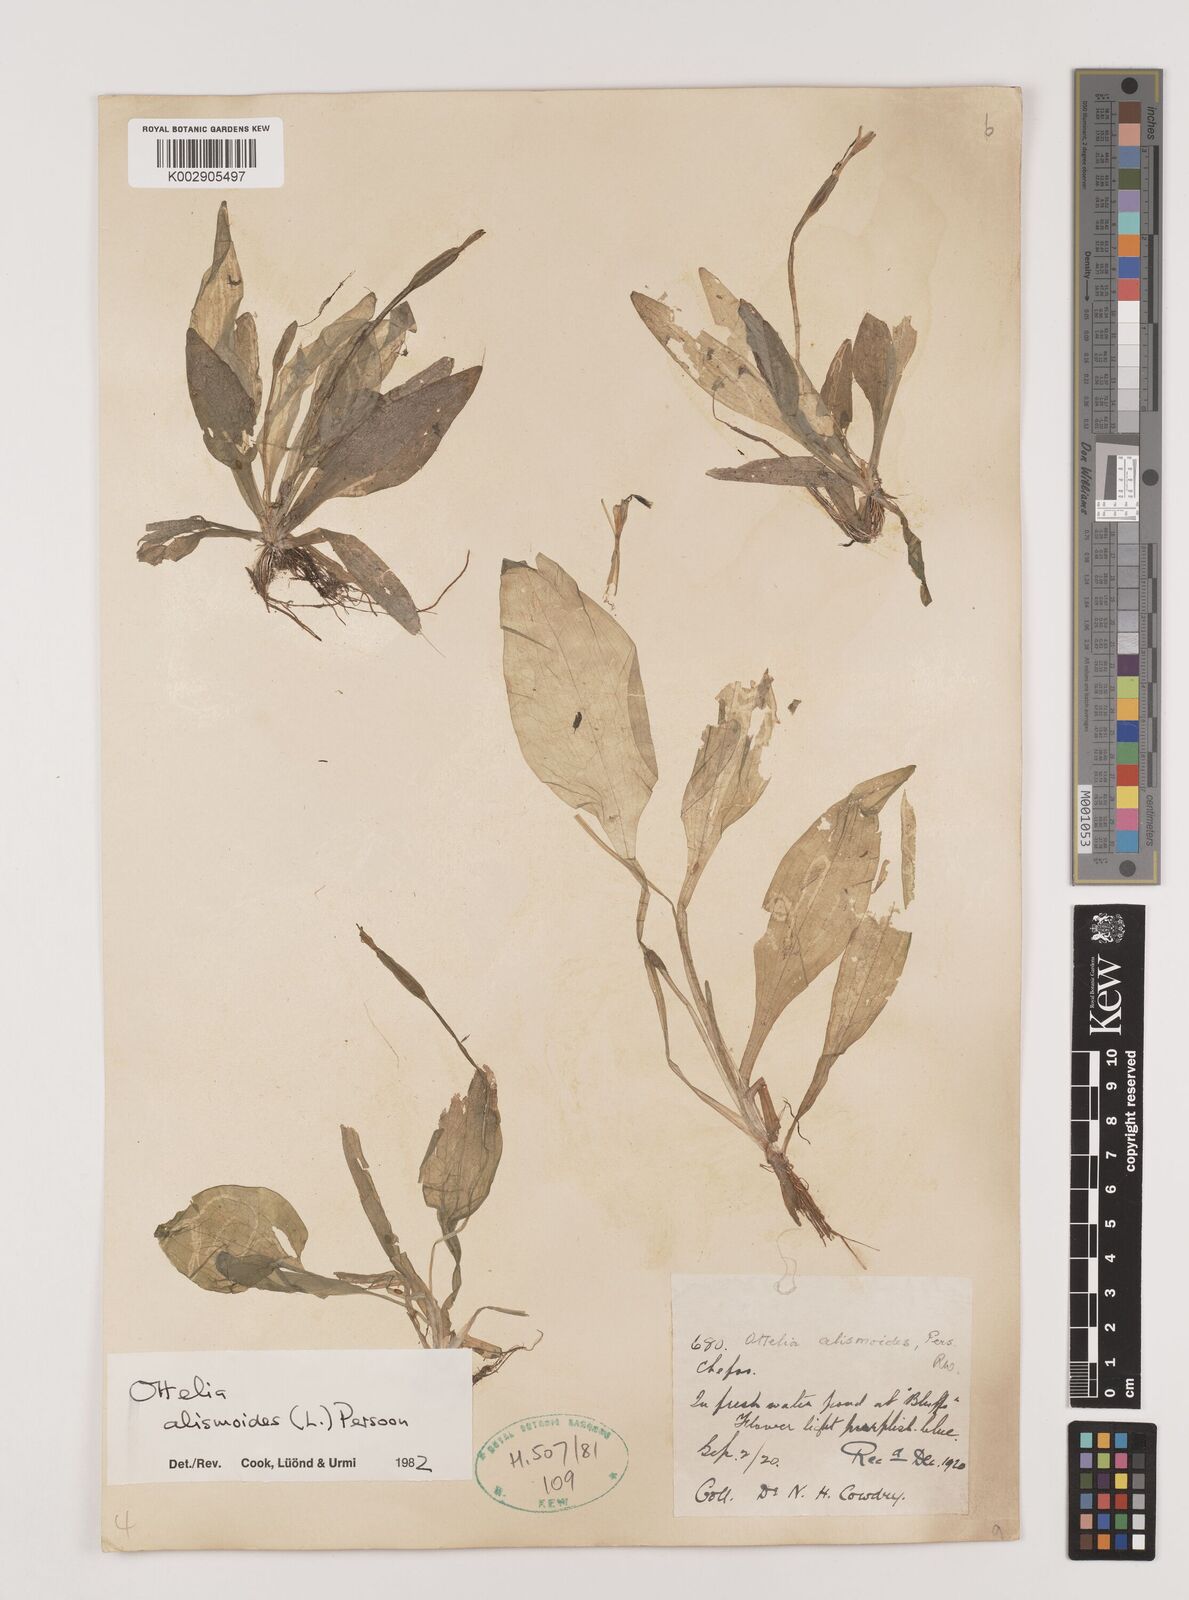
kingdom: Plantae
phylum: Tracheophyta
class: Liliopsida
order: Alismatales
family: Hydrocharitaceae
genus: Ottelia
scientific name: Ottelia alismoides
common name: Duck-lettuce
